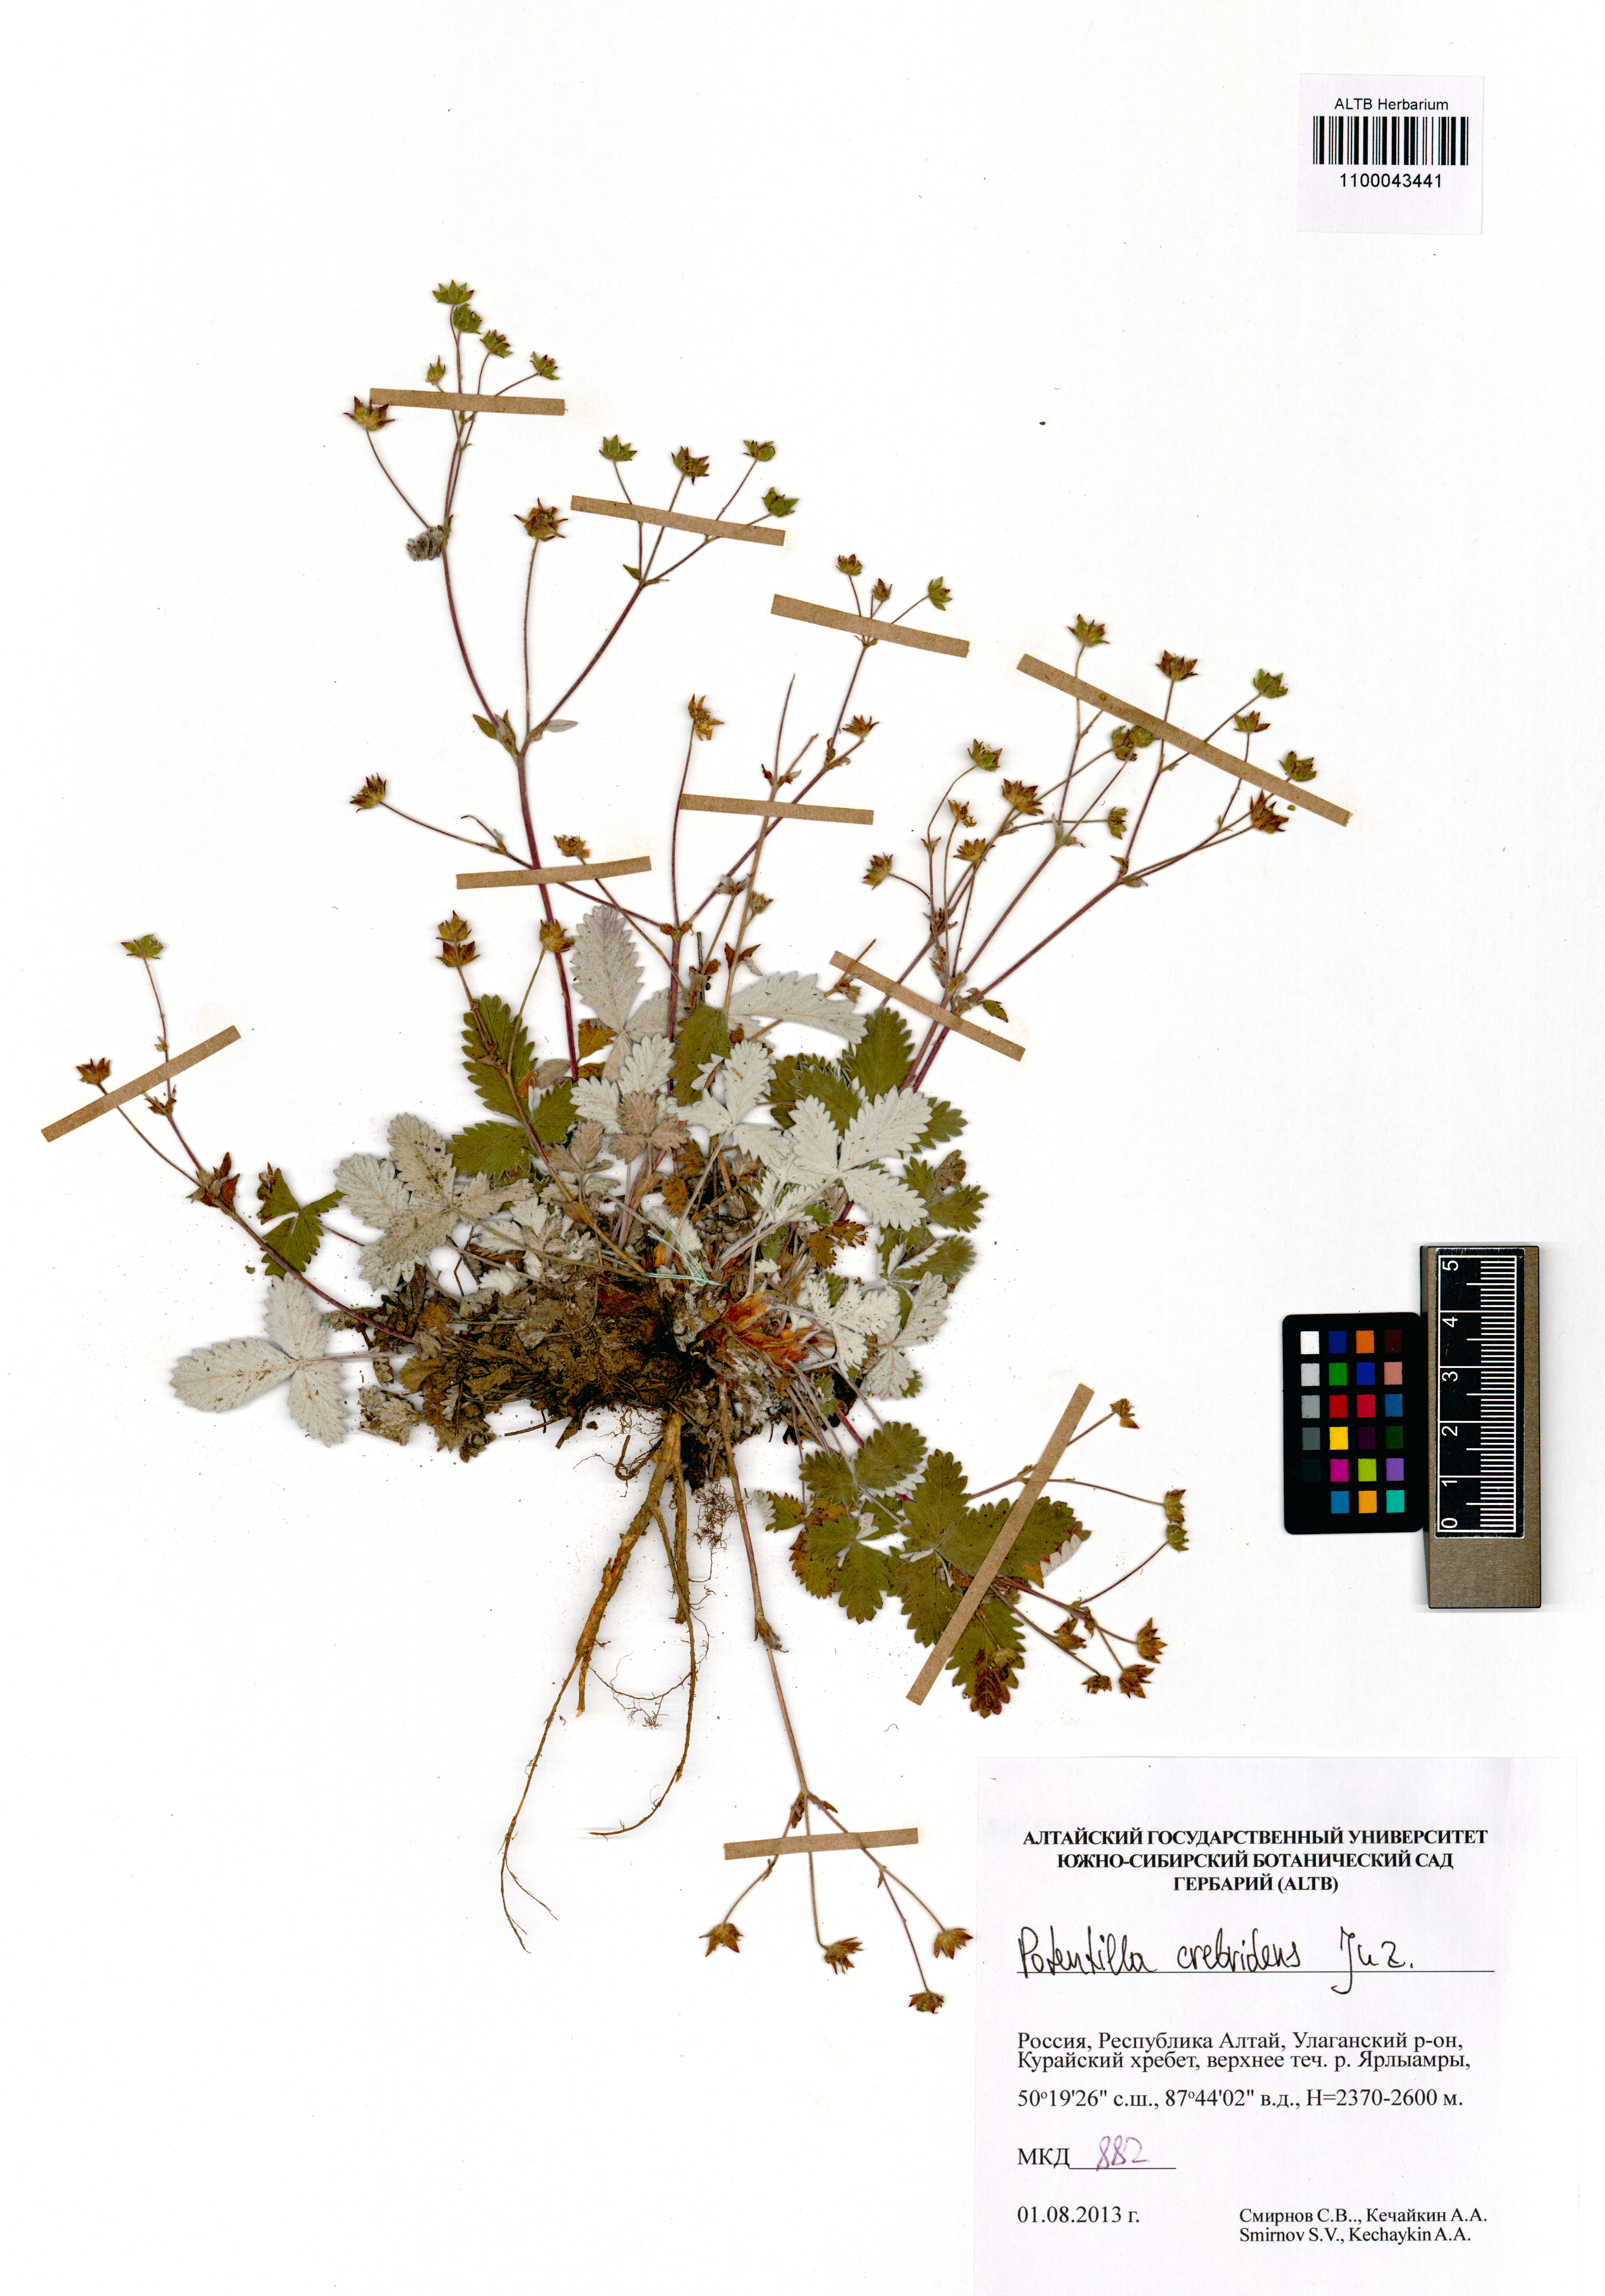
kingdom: Plantae
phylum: Tracheophyta
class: Magnoliopsida
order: Rosales
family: Rosaceae
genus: Potentilla
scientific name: Potentilla crebridens
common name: Congested cinquefoil
